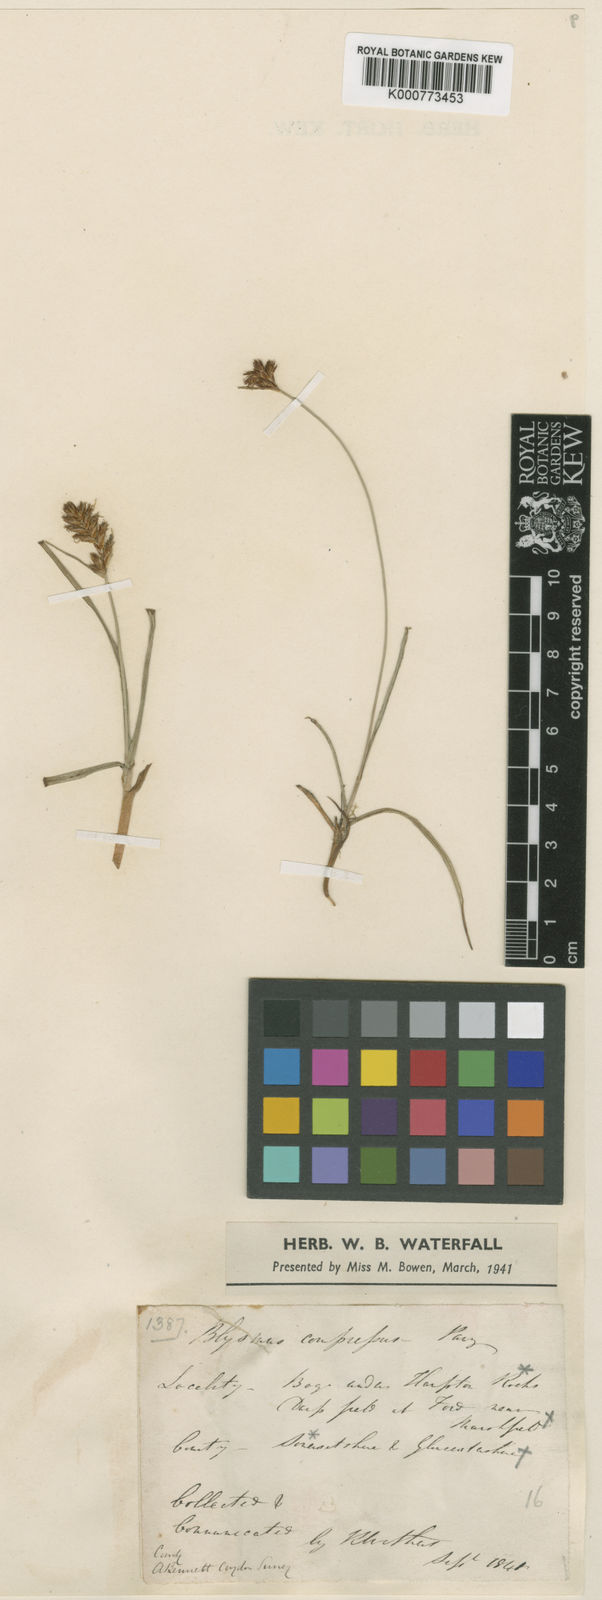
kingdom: Plantae
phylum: Tracheophyta
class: Liliopsida
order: Poales
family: Cyperaceae
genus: Blysmus
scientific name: Blysmus compressus
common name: Flat-sedge
